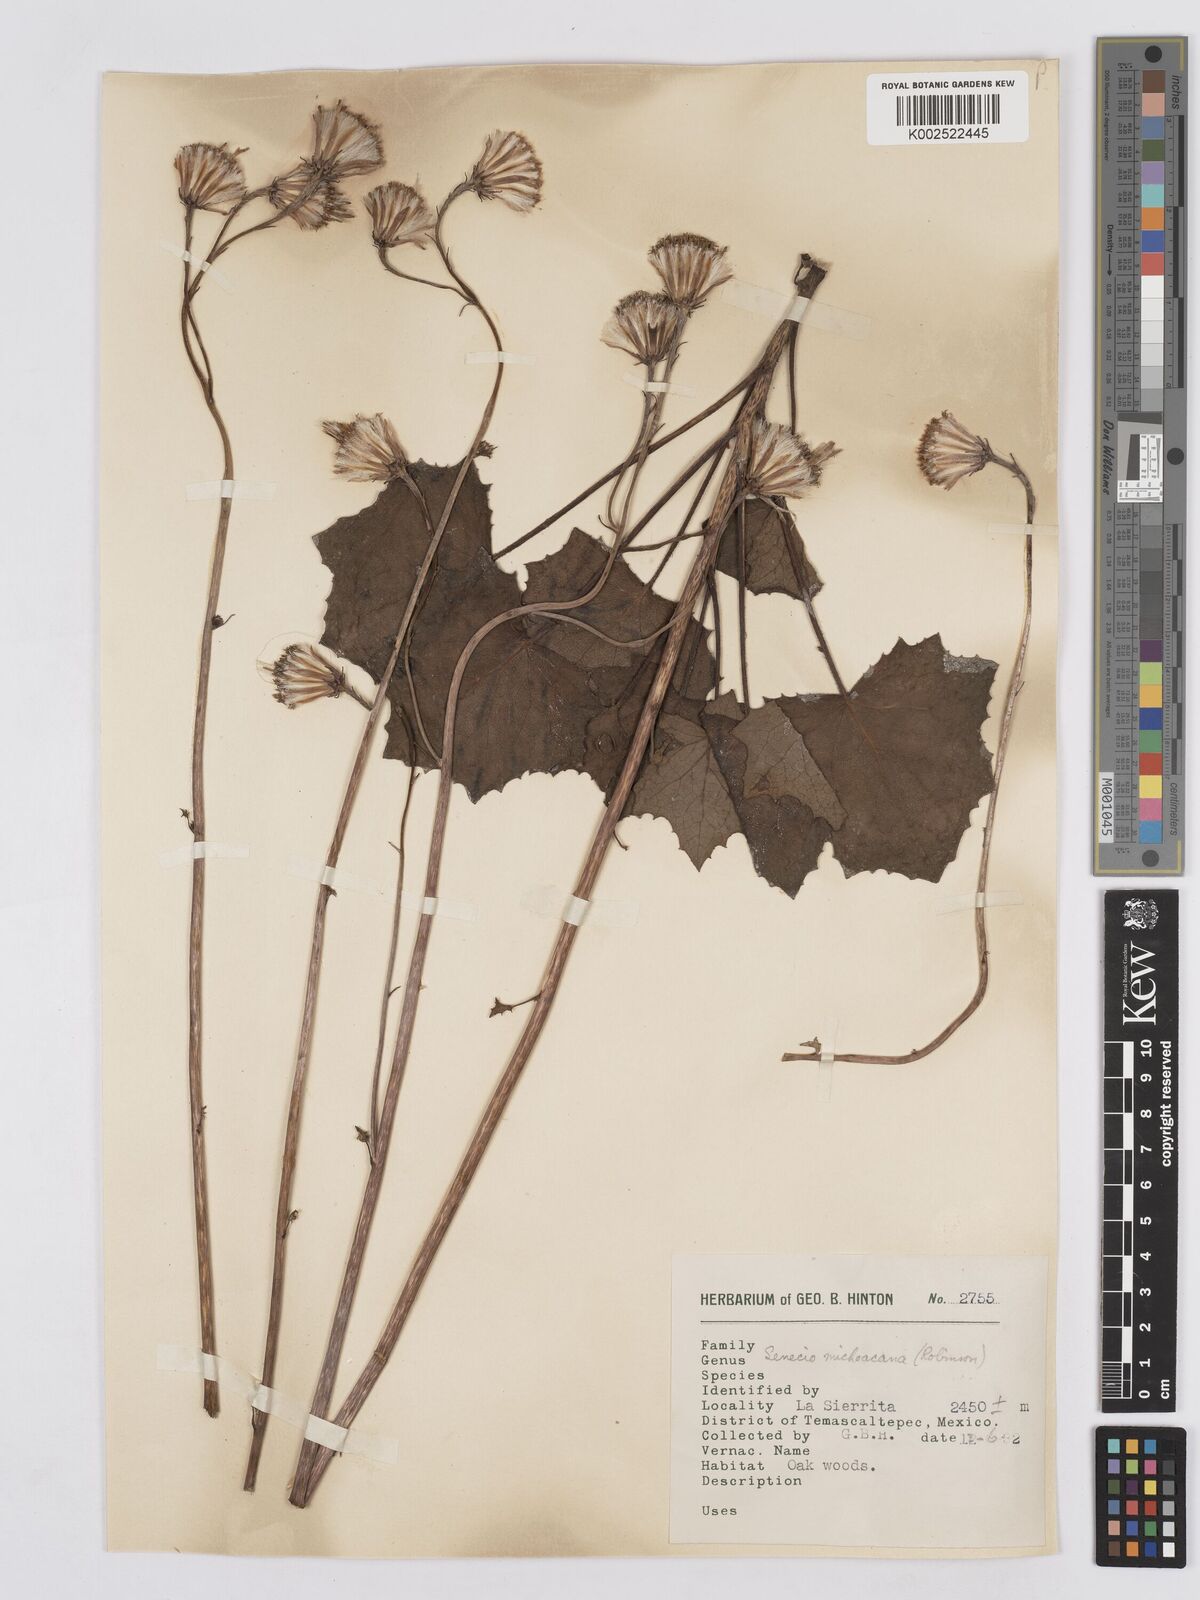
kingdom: Plantae
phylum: Tracheophyta
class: Magnoliopsida
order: Asterales
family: Asteraceae
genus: Roldana
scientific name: Roldana michoacana
